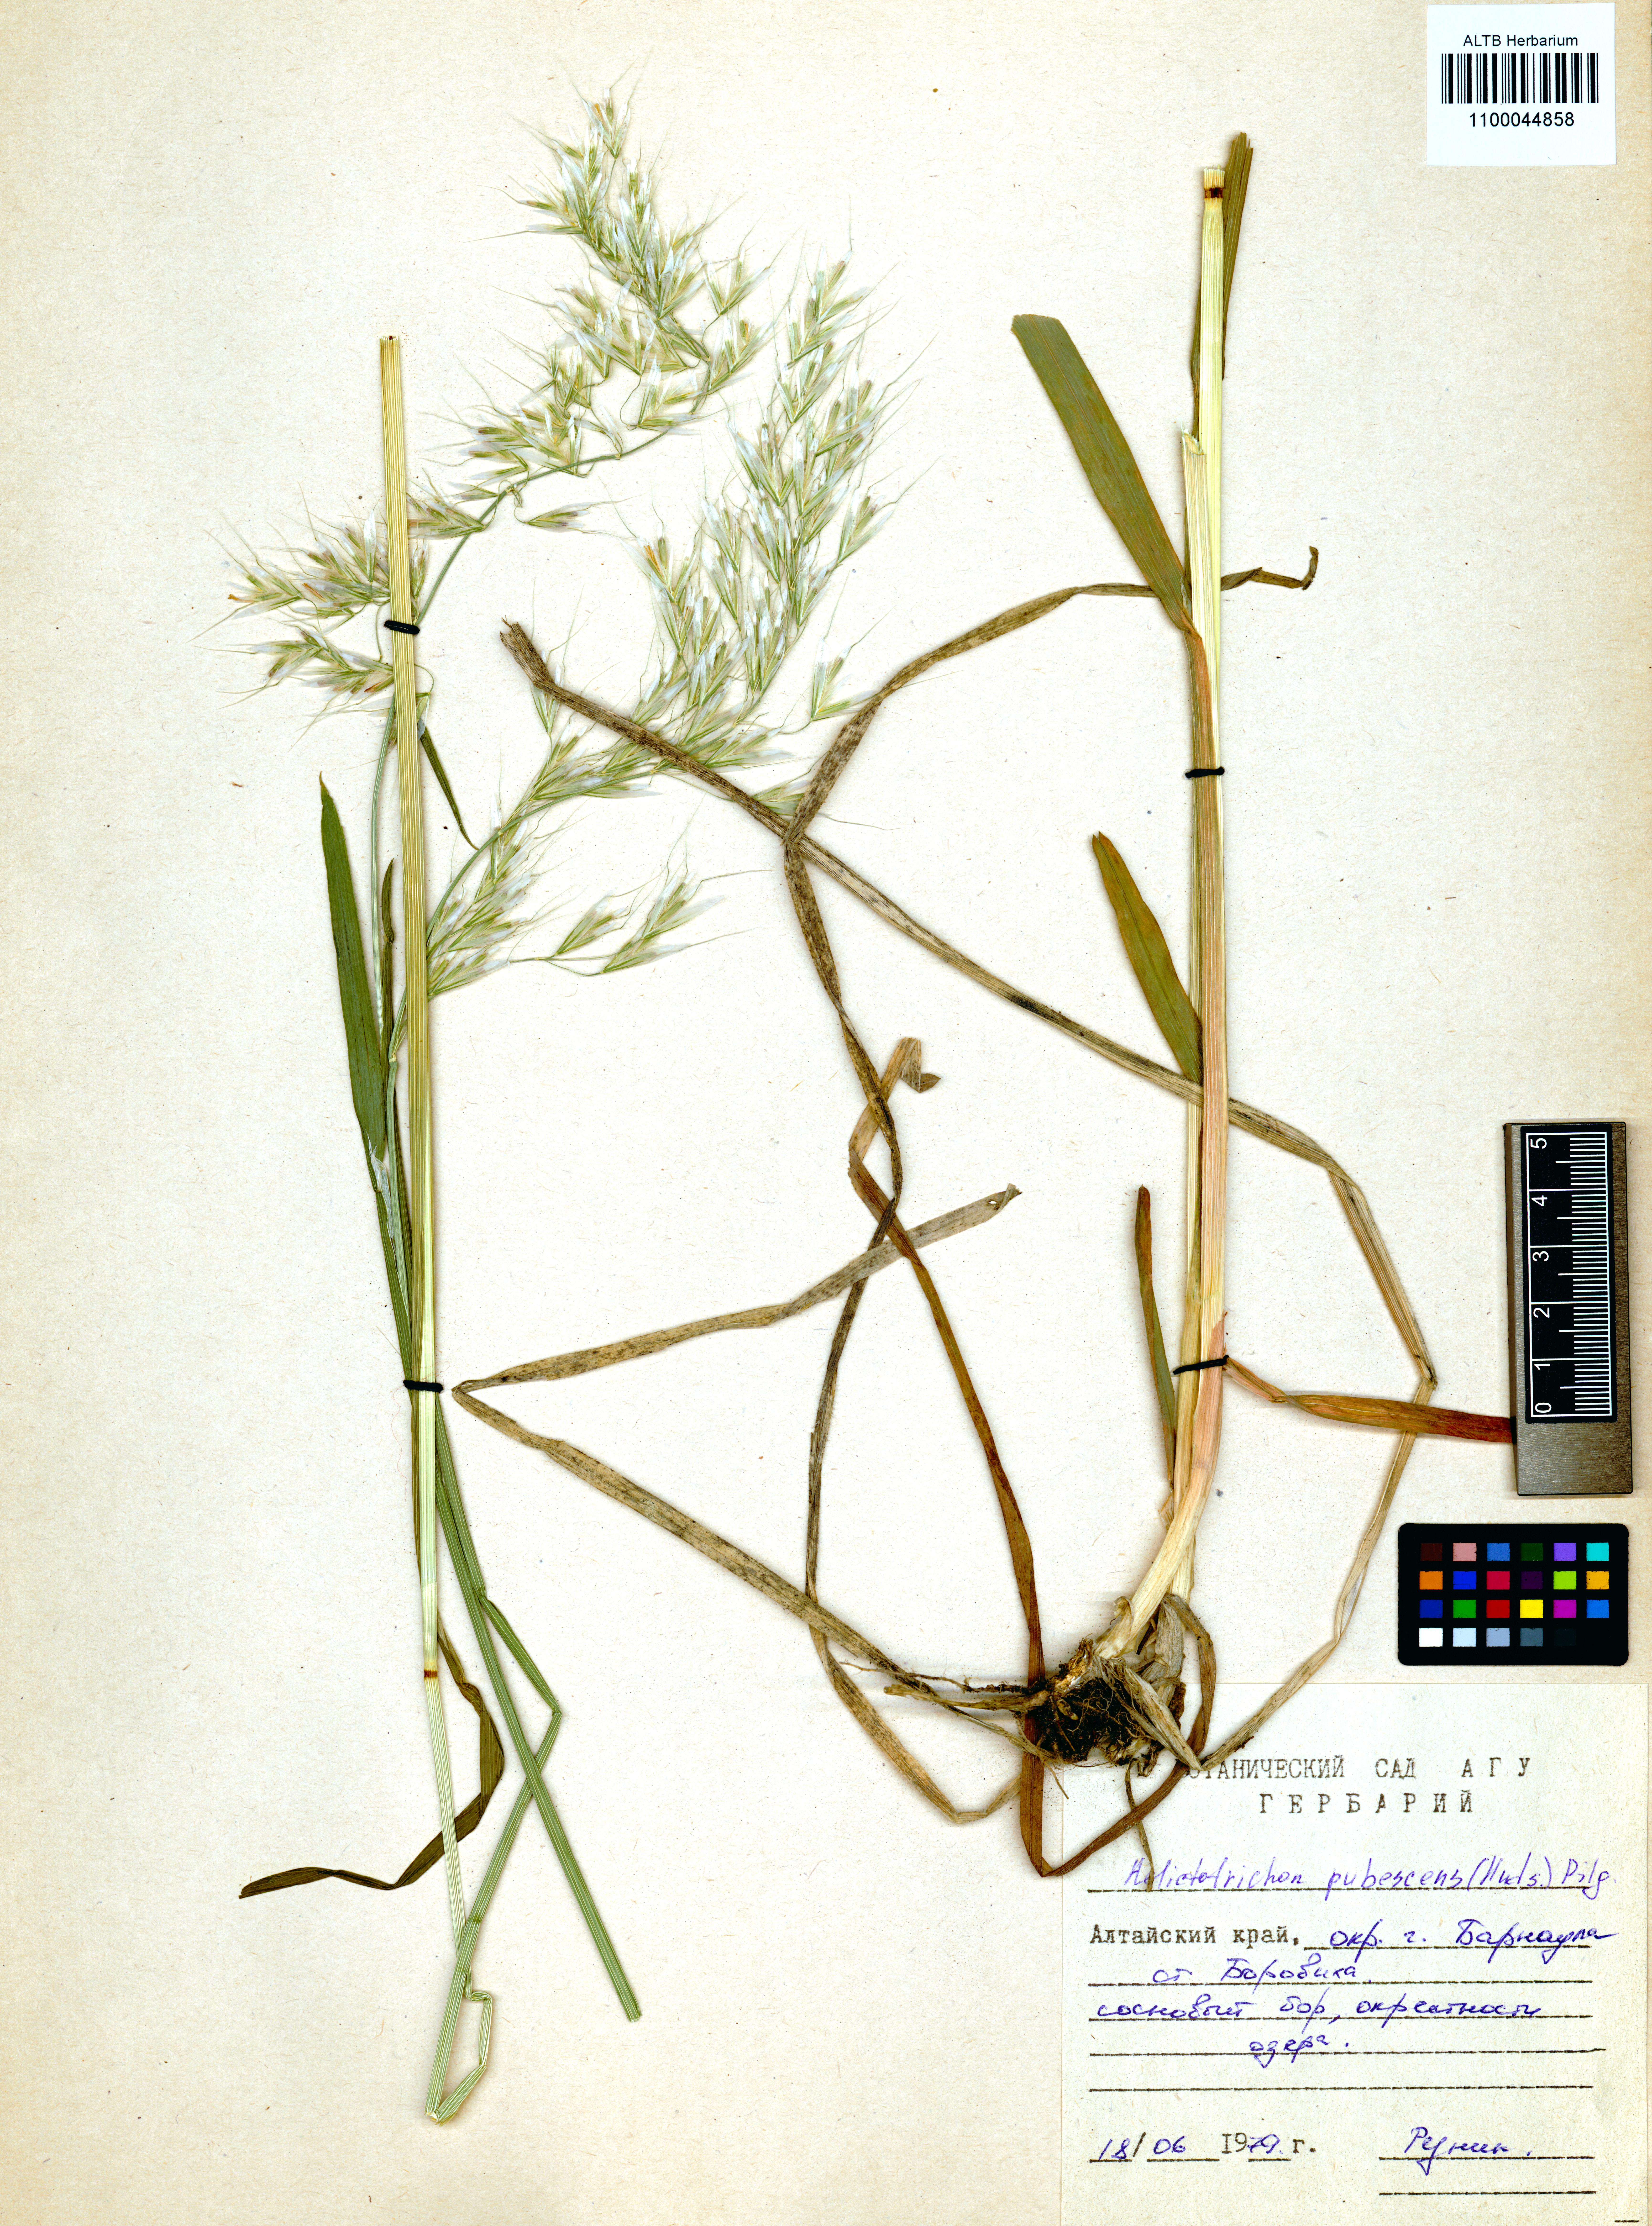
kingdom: Plantae
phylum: Tracheophyta
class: Liliopsida
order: Poales
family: Poaceae
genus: Avenula
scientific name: Avenula pubescens
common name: Downy alpine oatgrass
